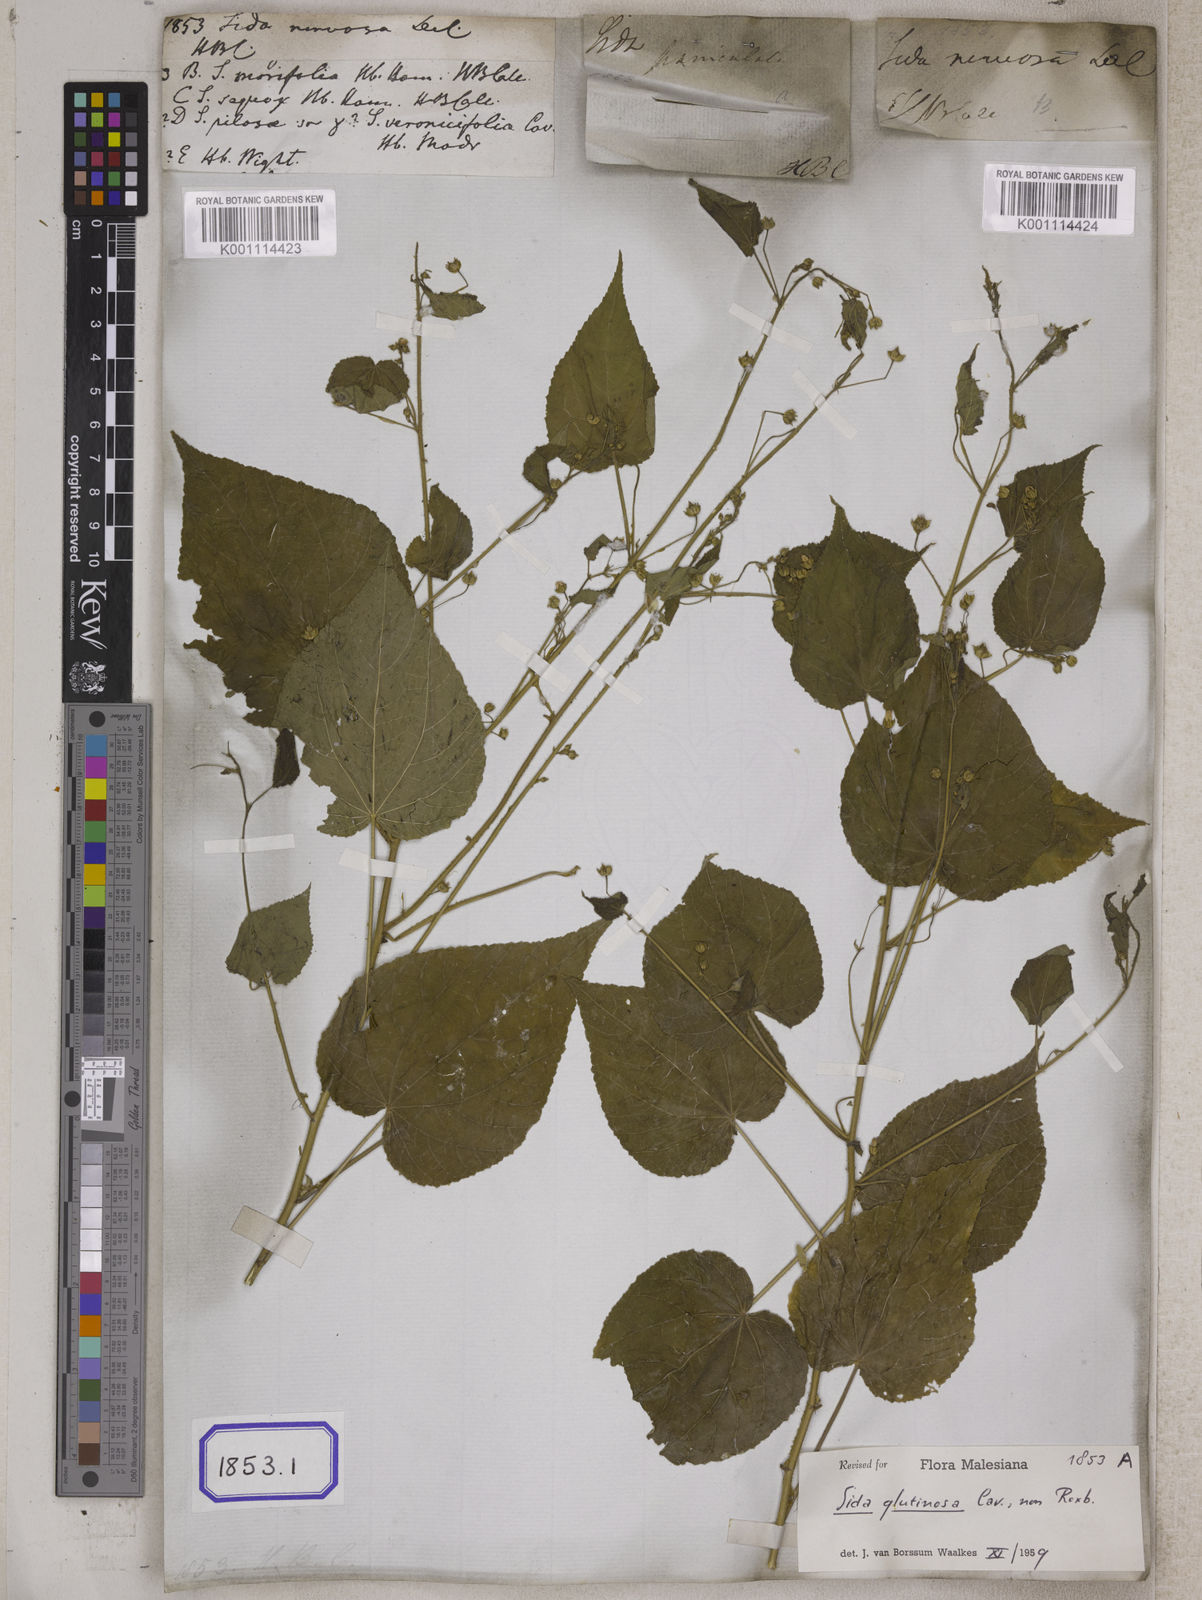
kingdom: Plantae
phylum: Tracheophyta
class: Magnoliopsida
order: Malvales
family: Malvaceae
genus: Sida
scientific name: Sida glutinosa
